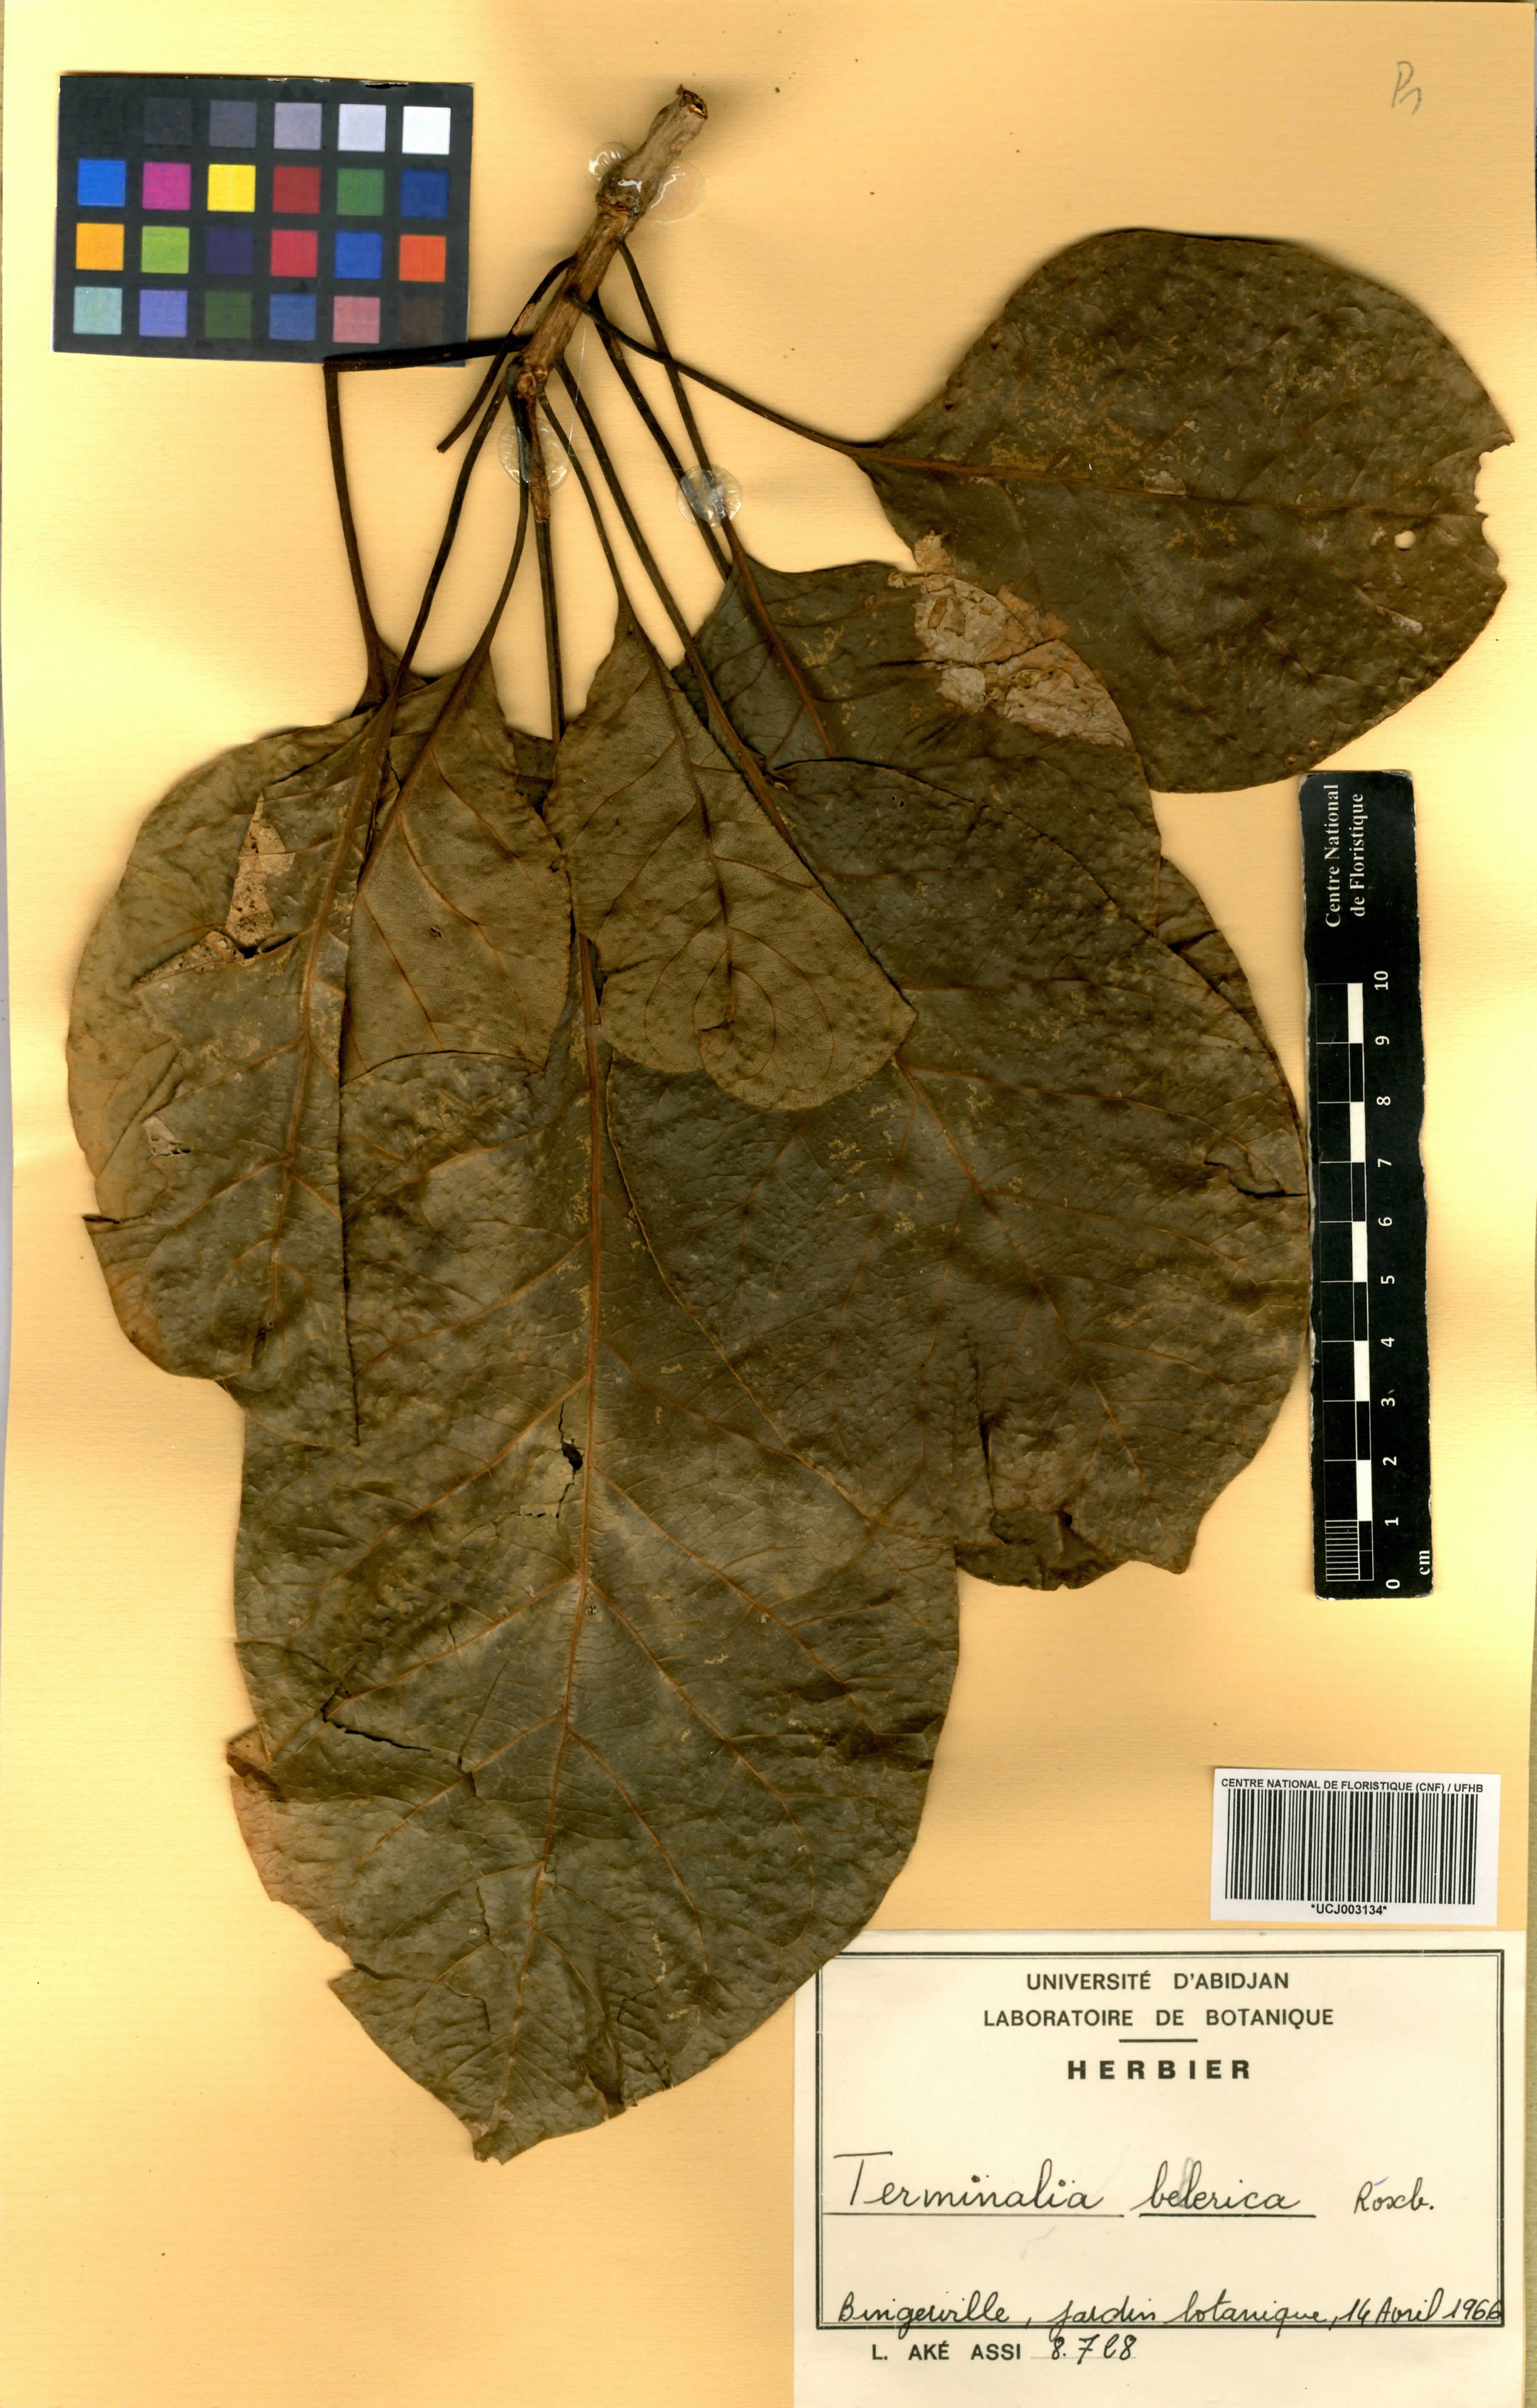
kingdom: Plantae
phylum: Tracheophyta
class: Magnoliopsida
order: Myrtales
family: Combretaceae
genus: Terminalia
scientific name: Terminalia bellirica
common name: Beleric myrobalan
